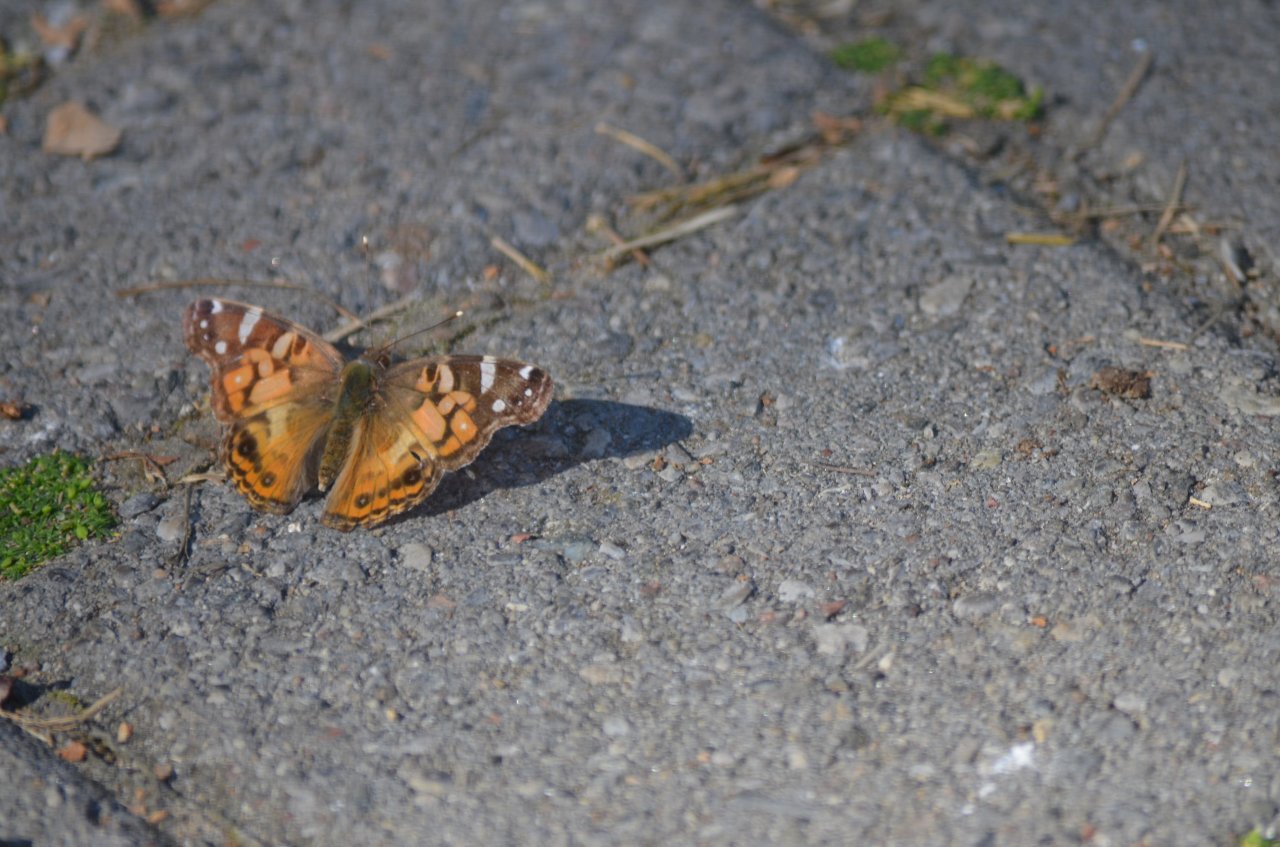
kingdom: Animalia
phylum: Arthropoda
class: Insecta
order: Lepidoptera
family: Nymphalidae
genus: Vanessa
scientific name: Vanessa virginiensis
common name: American Lady
